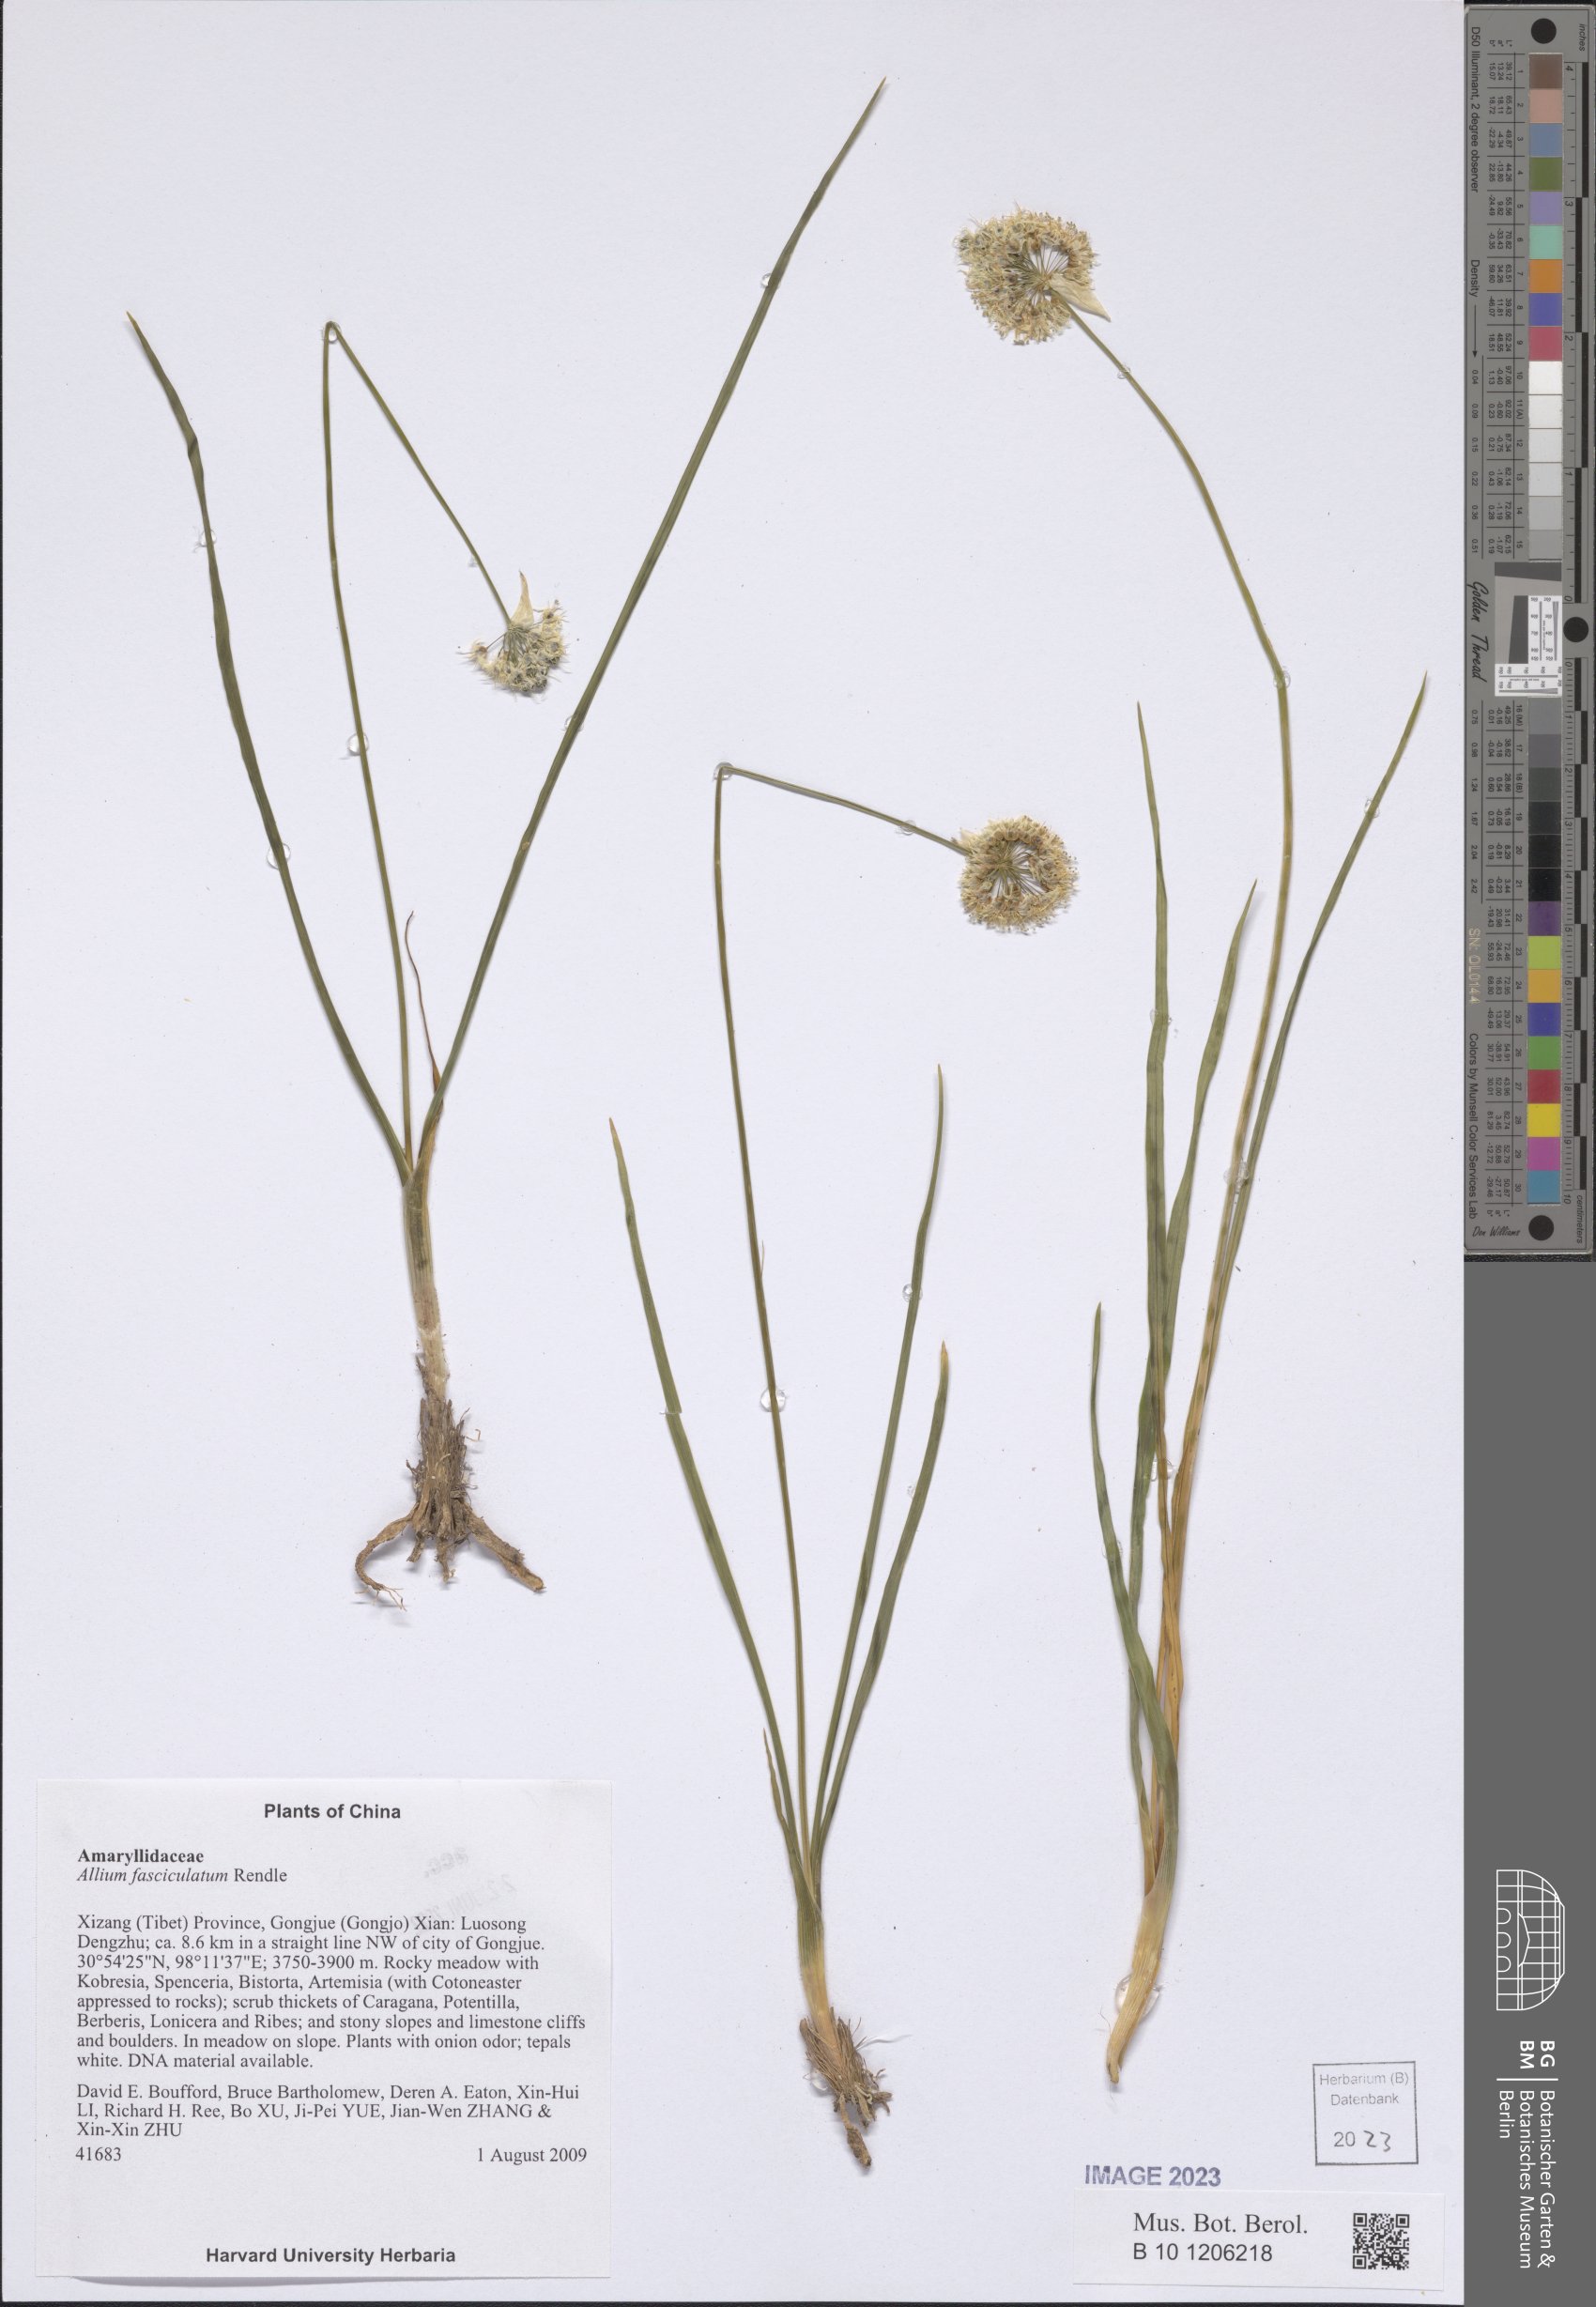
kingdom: Plantae
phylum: Tracheophyta
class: Liliopsida
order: Asparagales
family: Amaryllidaceae
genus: Allium
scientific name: Allium fasciculatum
